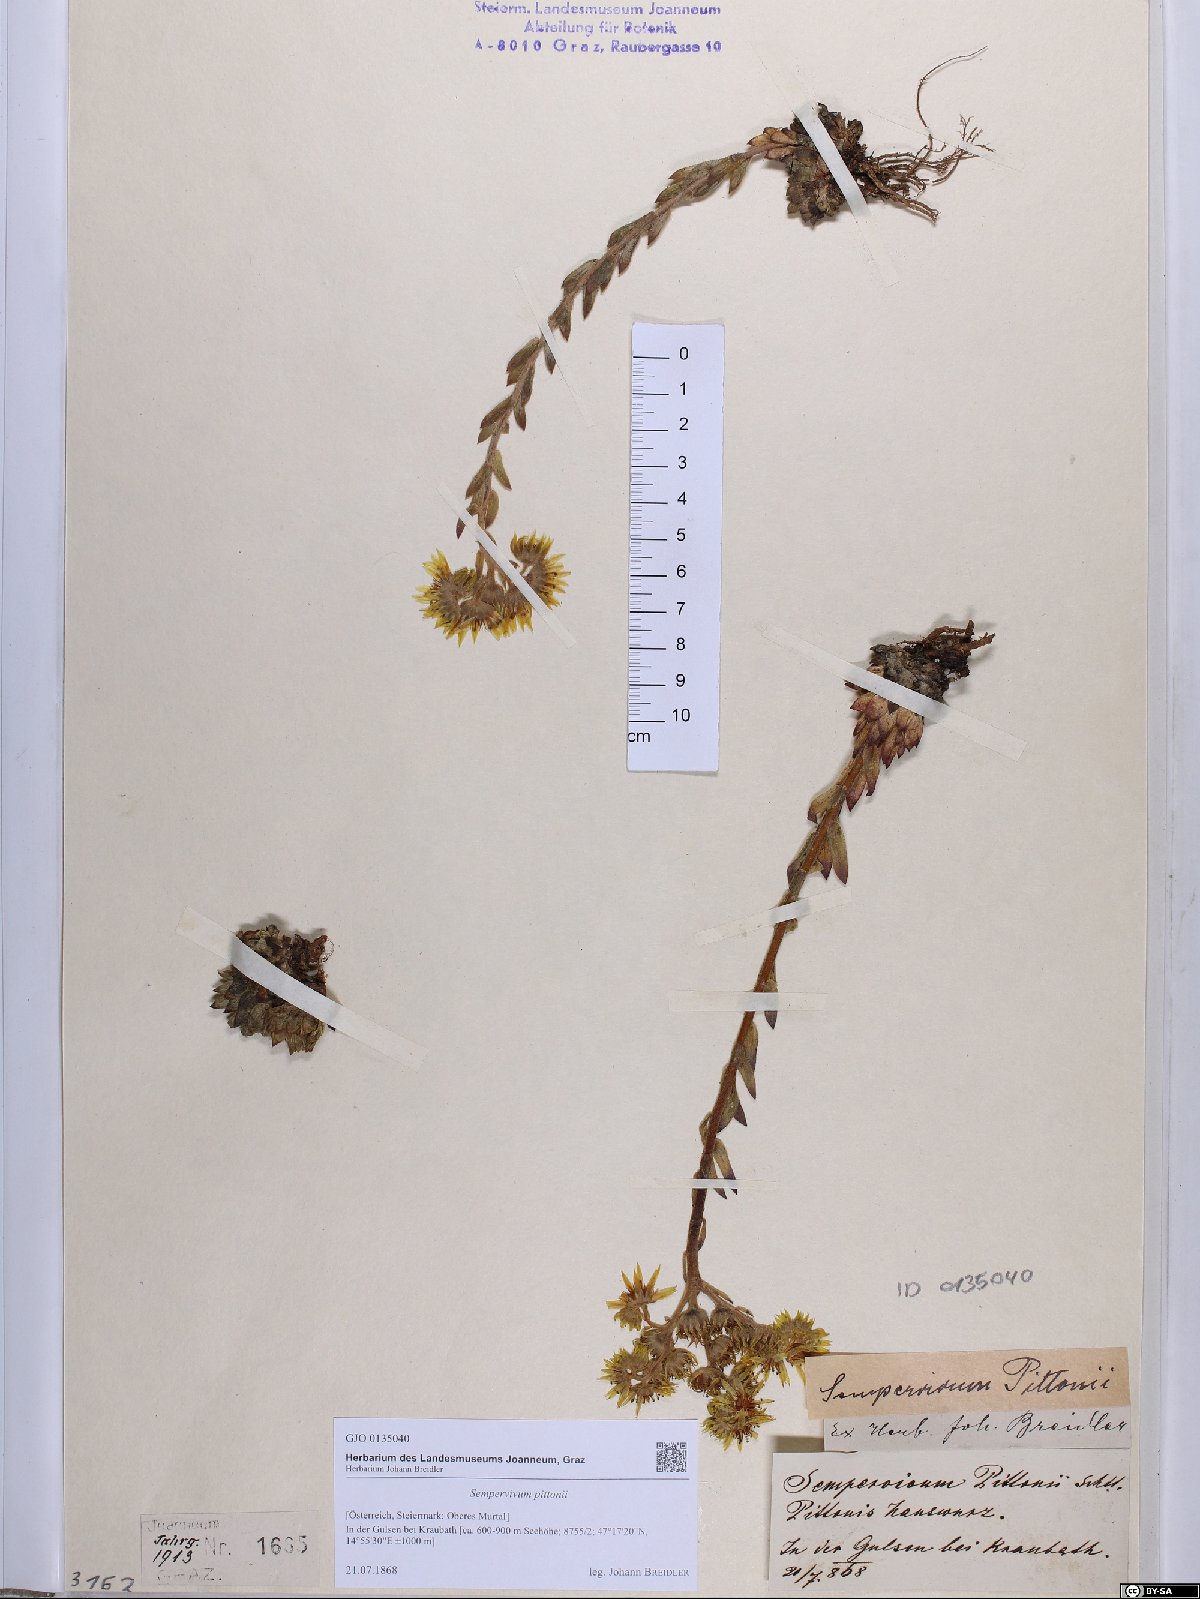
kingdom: Plantae
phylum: Tracheophyta
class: Magnoliopsida
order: Saxifragales
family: Crassulaceae
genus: Sempervivum
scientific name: Sempervivum pittonii
